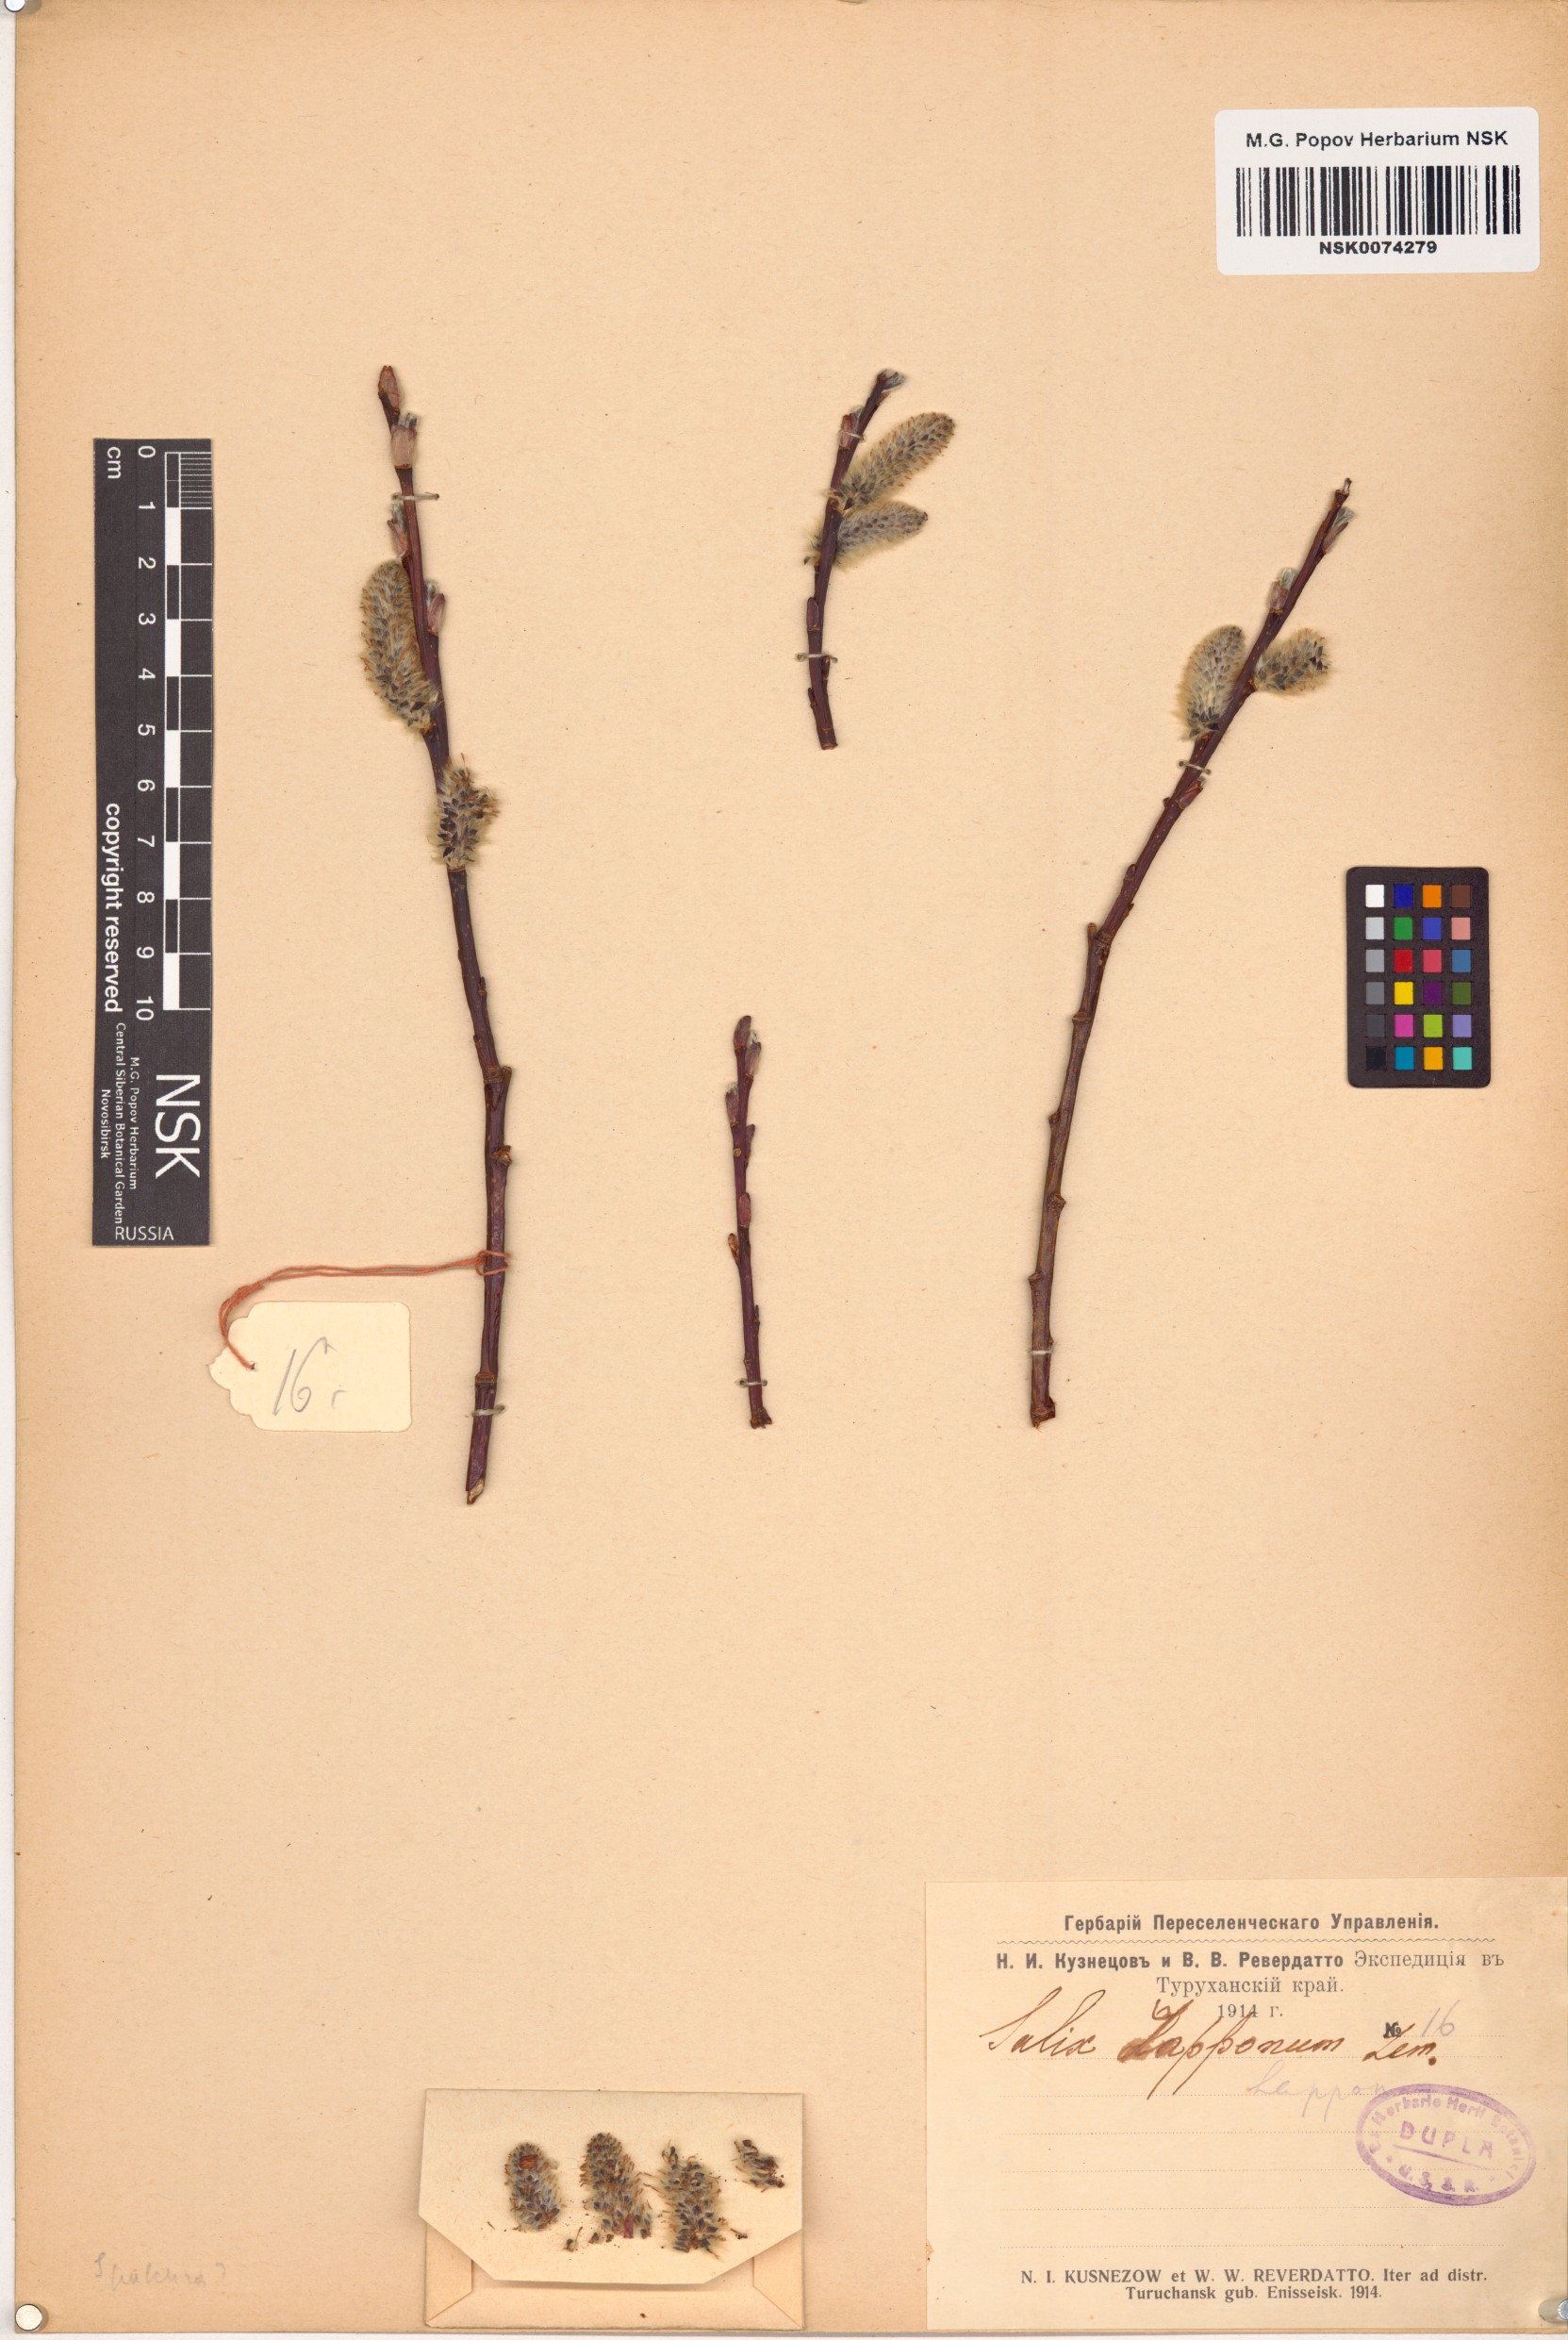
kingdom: Plantae
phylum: Tracheophyta
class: Magnoliopsida
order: Malpighiales
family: Salicaceae
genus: Salix
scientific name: Salix lapponum
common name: Downy willow
